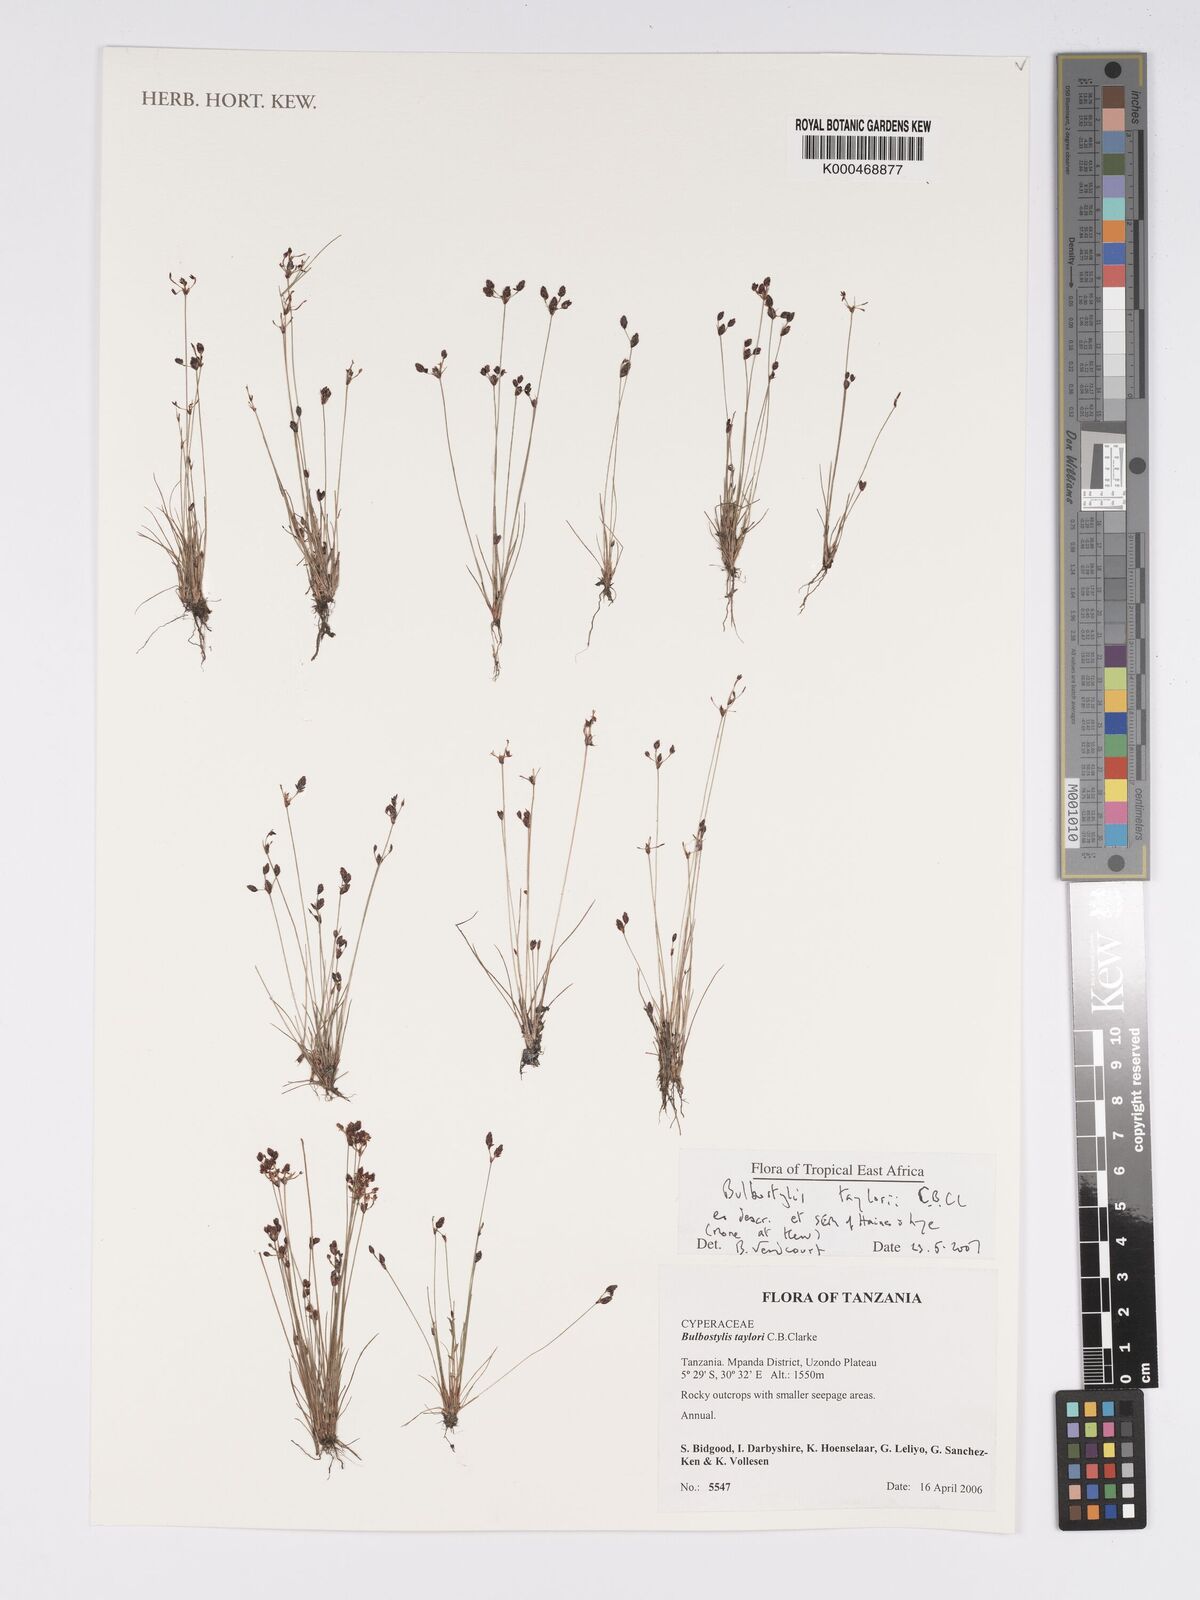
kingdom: Plantae
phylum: Tracheophyta
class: Liliopsida
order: Poales
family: Cyperaceae
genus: Bulbostylis
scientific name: Bulbostylis taylorii
